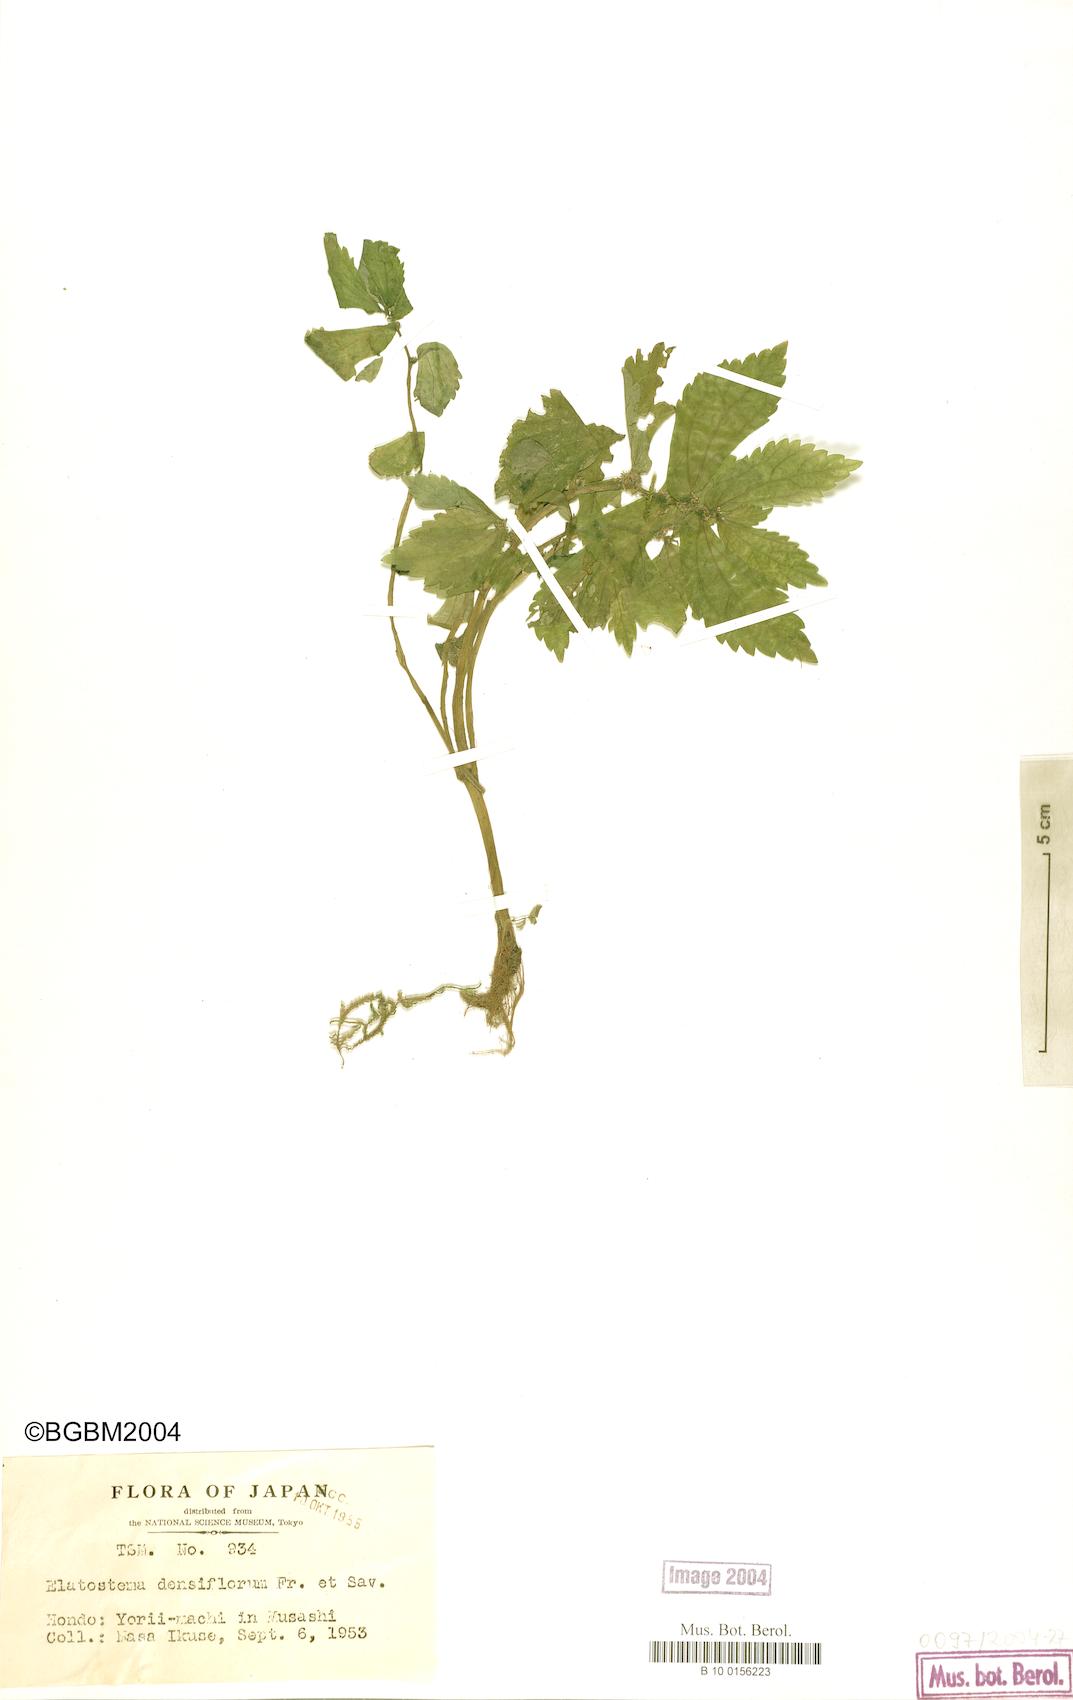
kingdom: Plantae
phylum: Tracheophyta
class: Magnoliopsida
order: Rosales
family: Urticaceae
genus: Elatostema
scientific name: Elatostema monandrum
